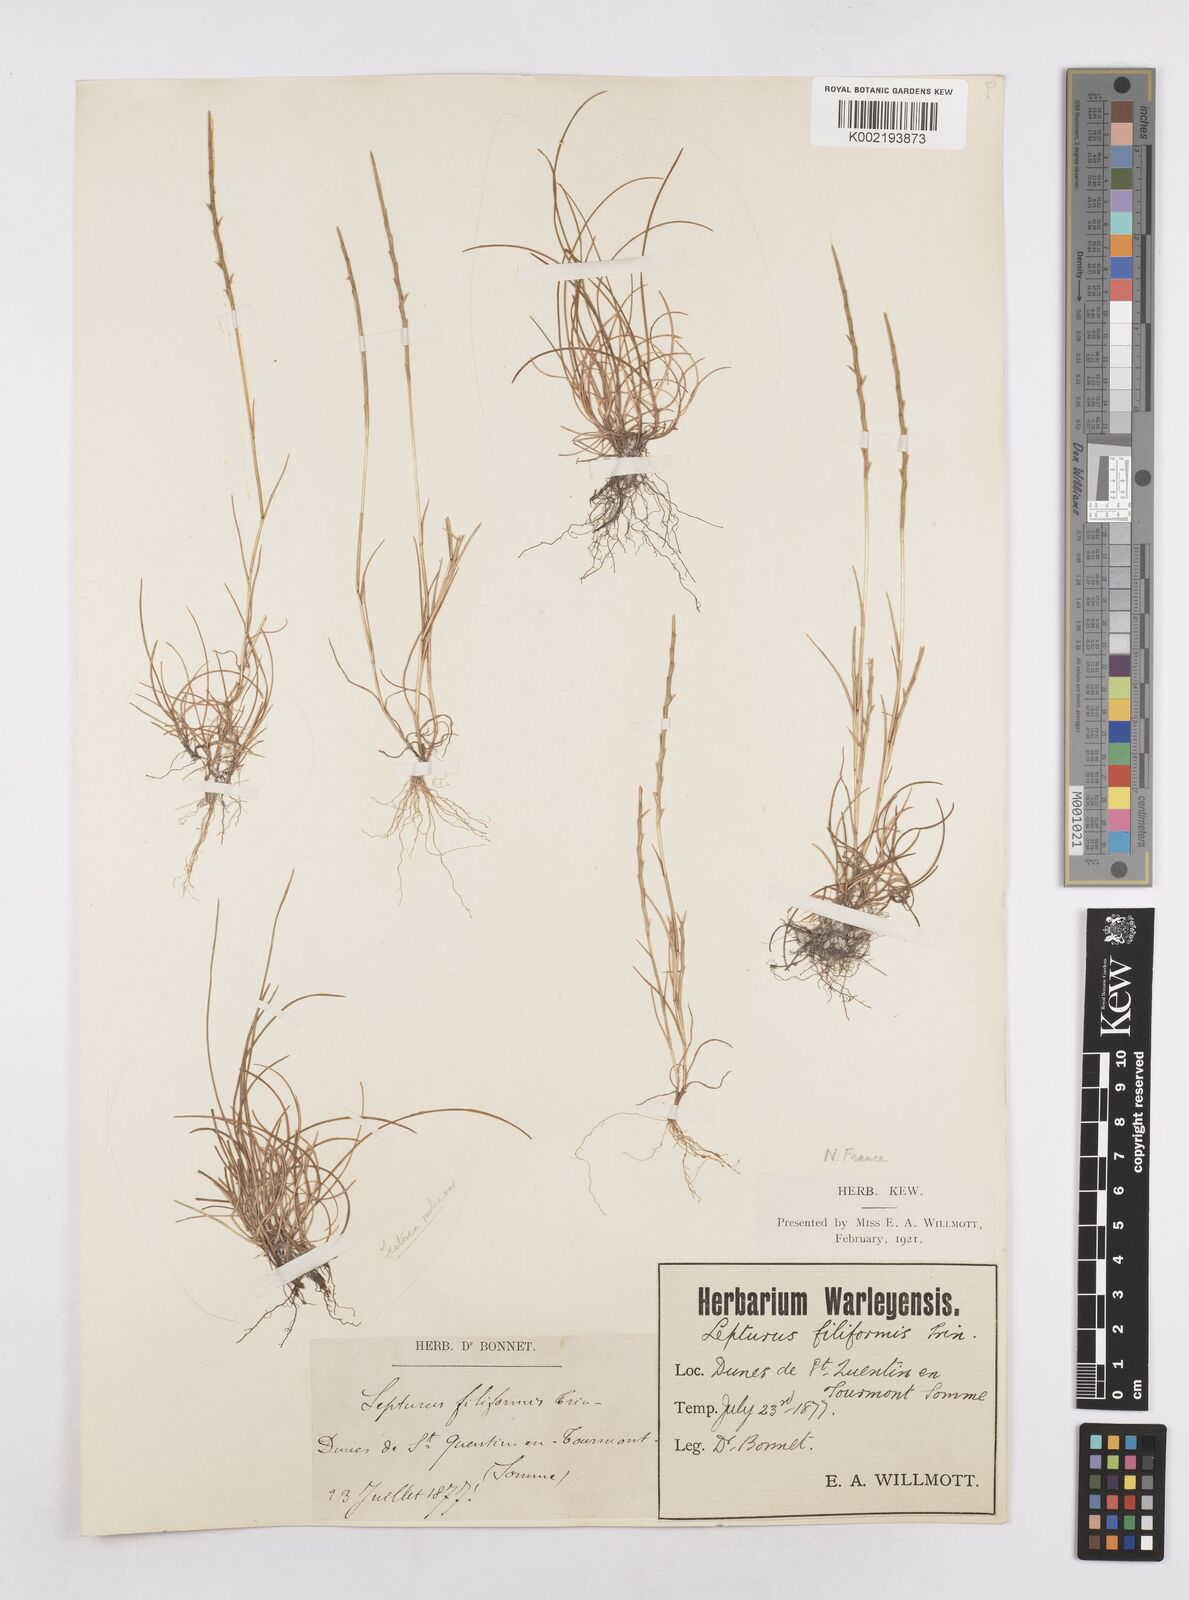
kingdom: Plantae
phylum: Tracheophyta
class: Liliopsida
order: Poales
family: Poaceae
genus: Parapholis
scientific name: Parapholis strigosa
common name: Hard-grass
